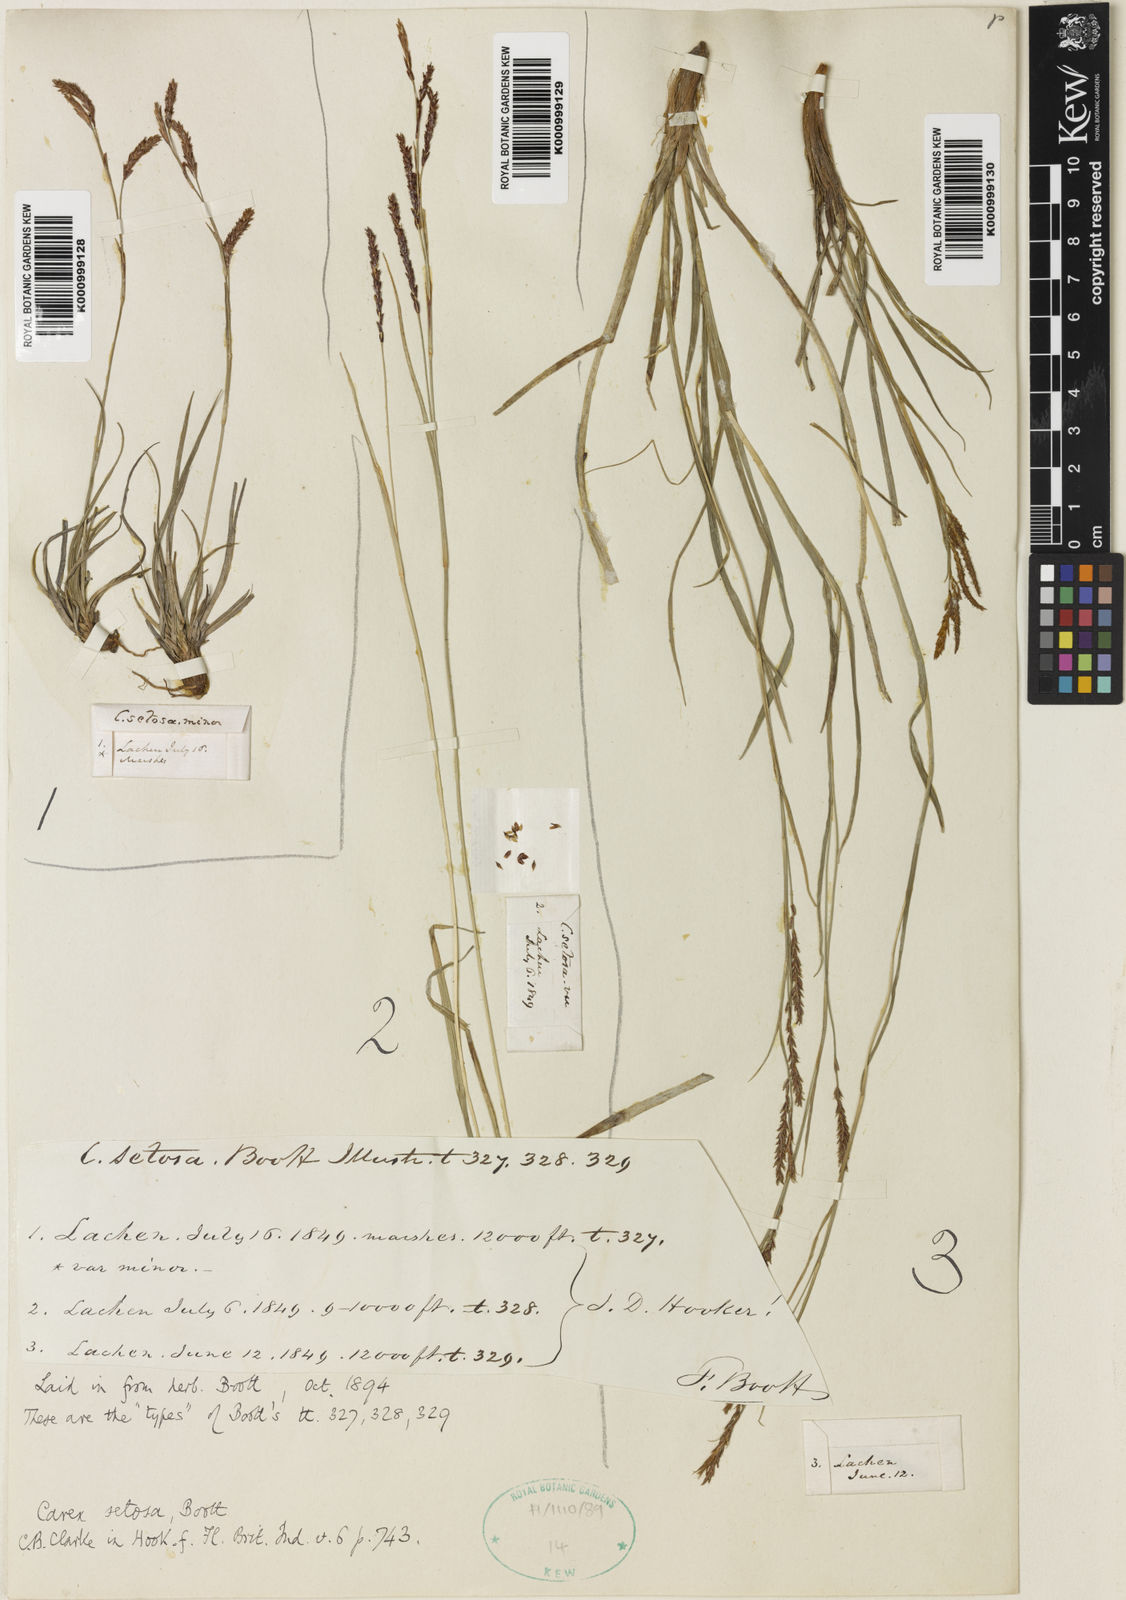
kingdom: Plantae
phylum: Tracheophyta
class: Liliopsida
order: Poales
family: Cyperaceae
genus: Carex
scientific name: Carex setosa
